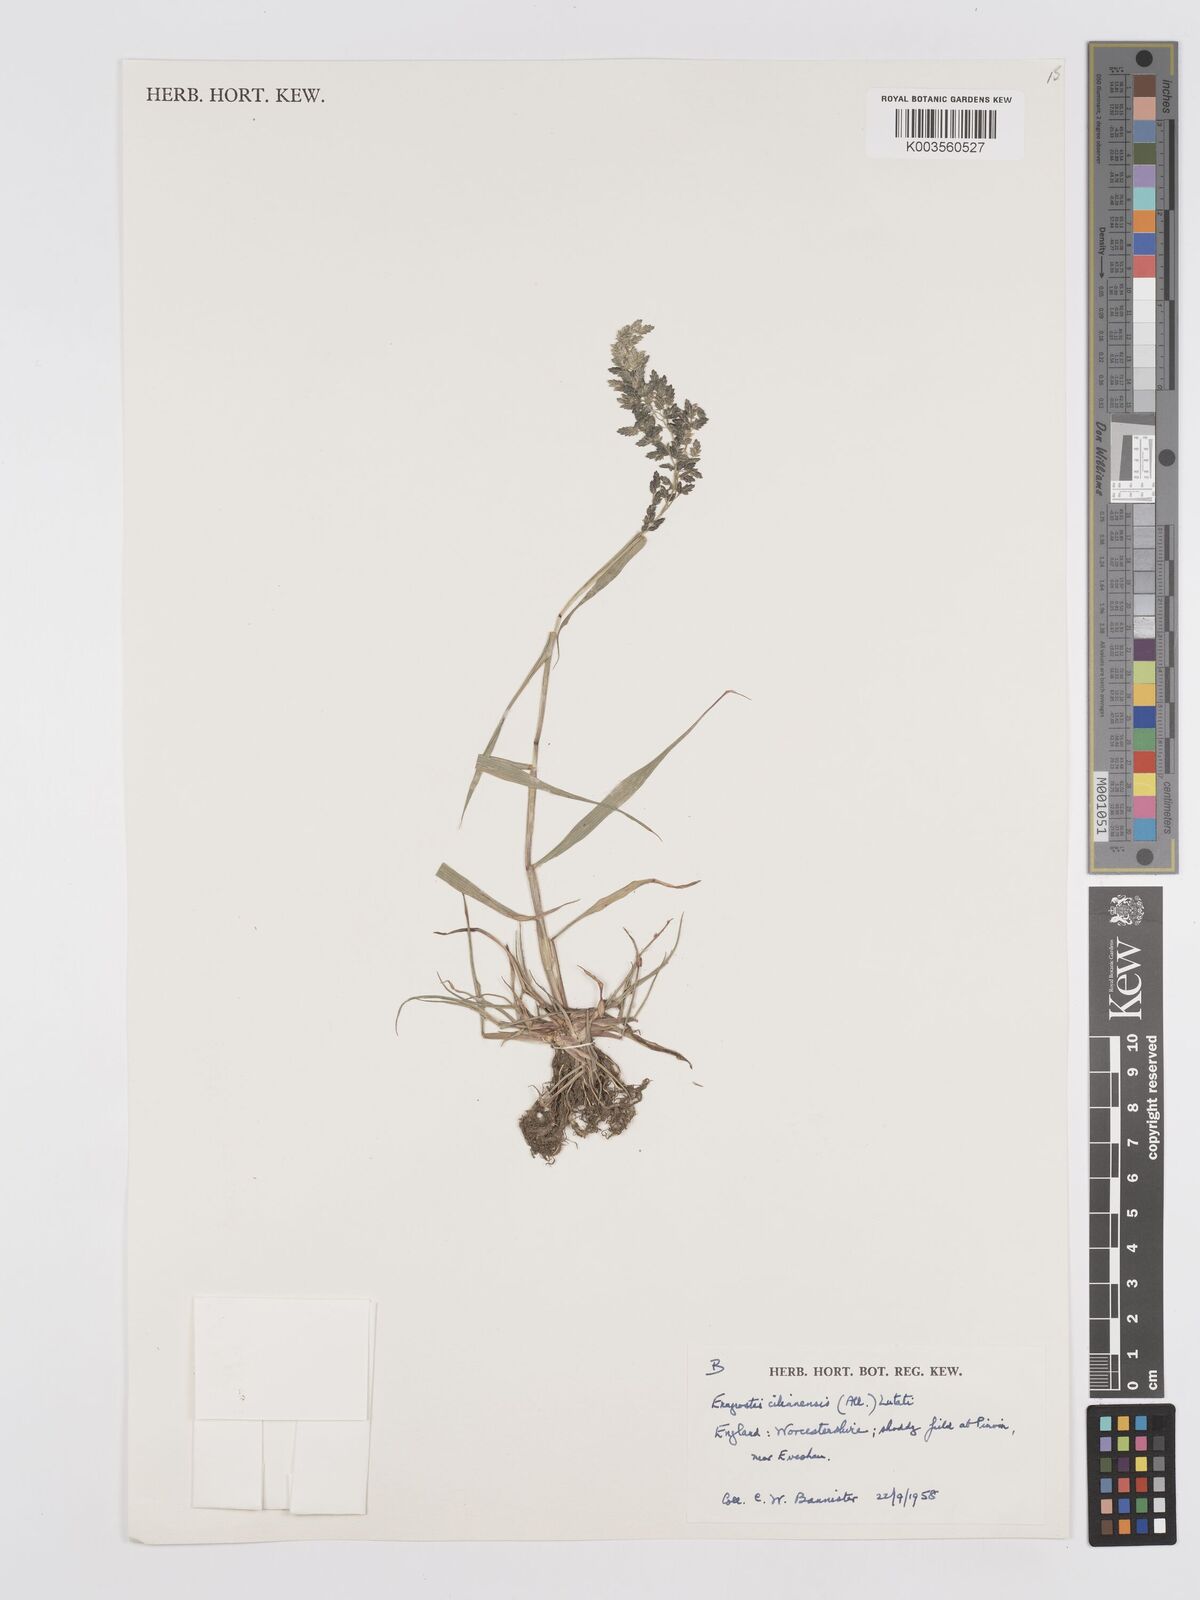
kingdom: Plantae
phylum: Tracheophyta
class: Liliopsida
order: Poales
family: Poaceae
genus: Eragrostis
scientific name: Eragrostis cilianensis
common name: Stinkgrass
